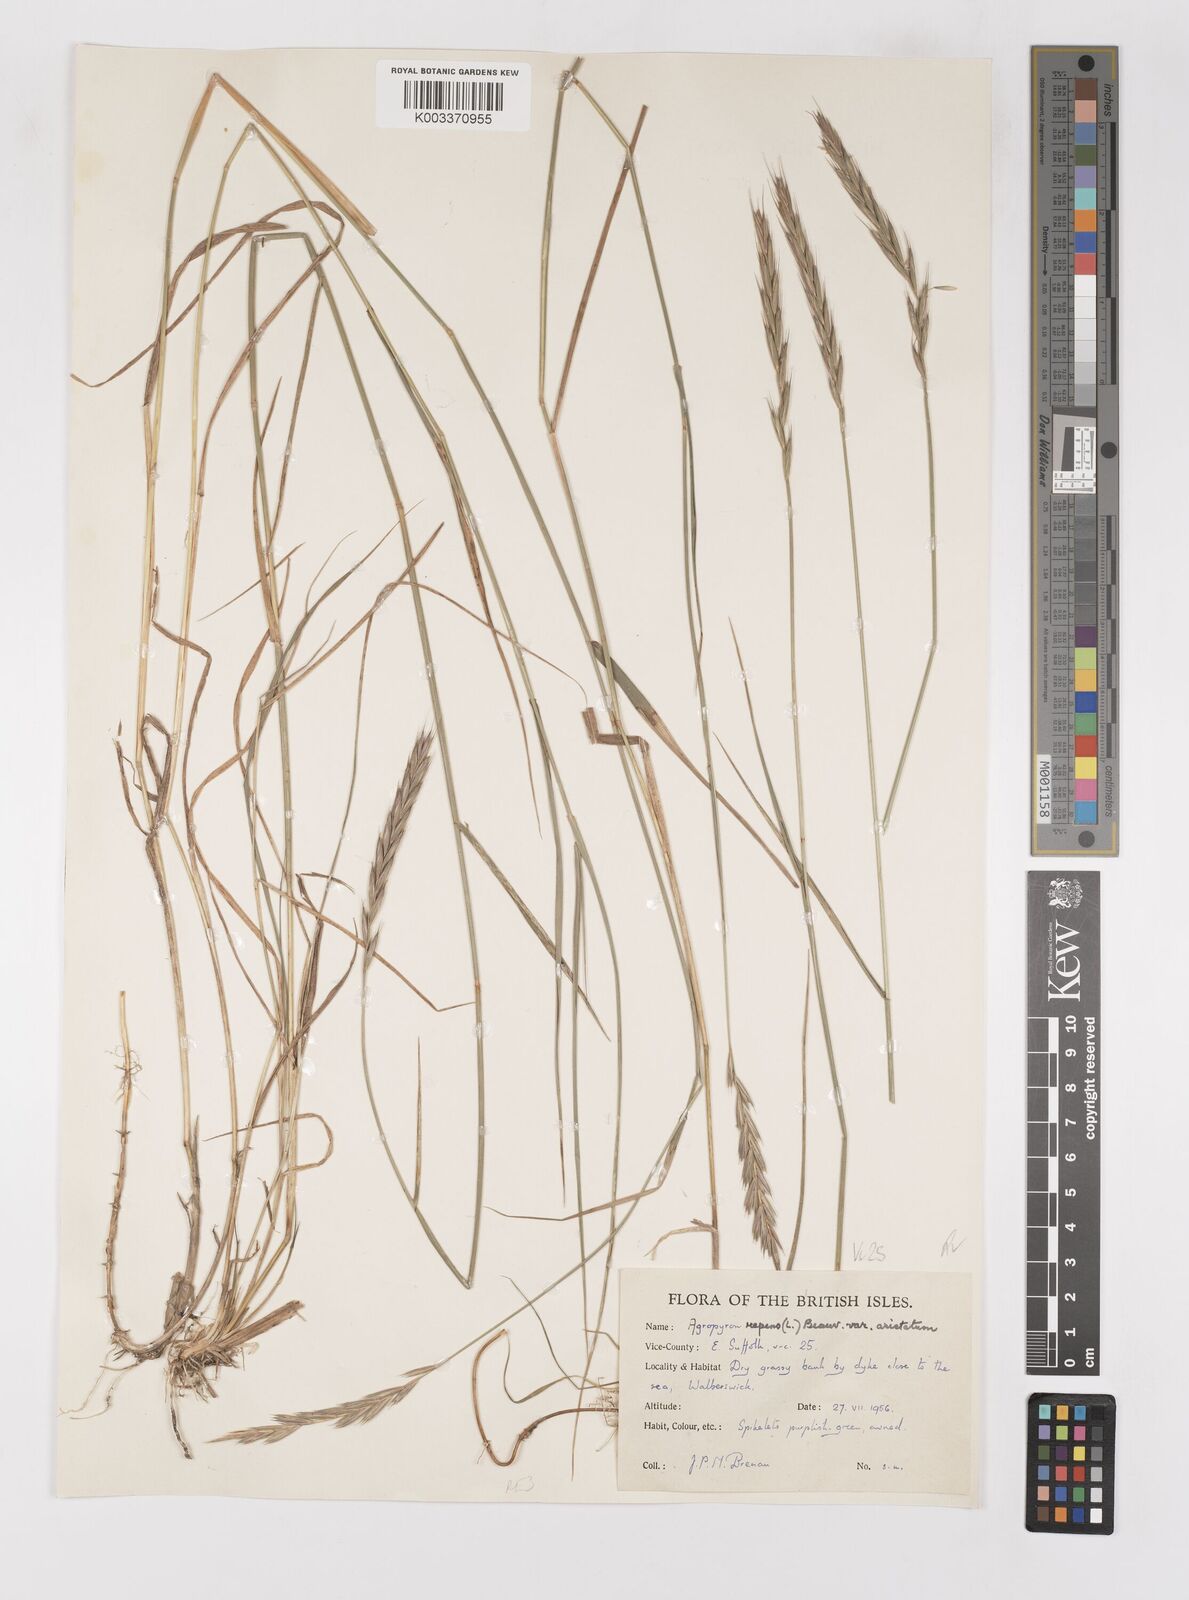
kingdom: Plantae
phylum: Tracheophyta
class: Liliopsida
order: Poales
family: Poaceae
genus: Elymus
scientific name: Elymus repens
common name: Quackgrass
